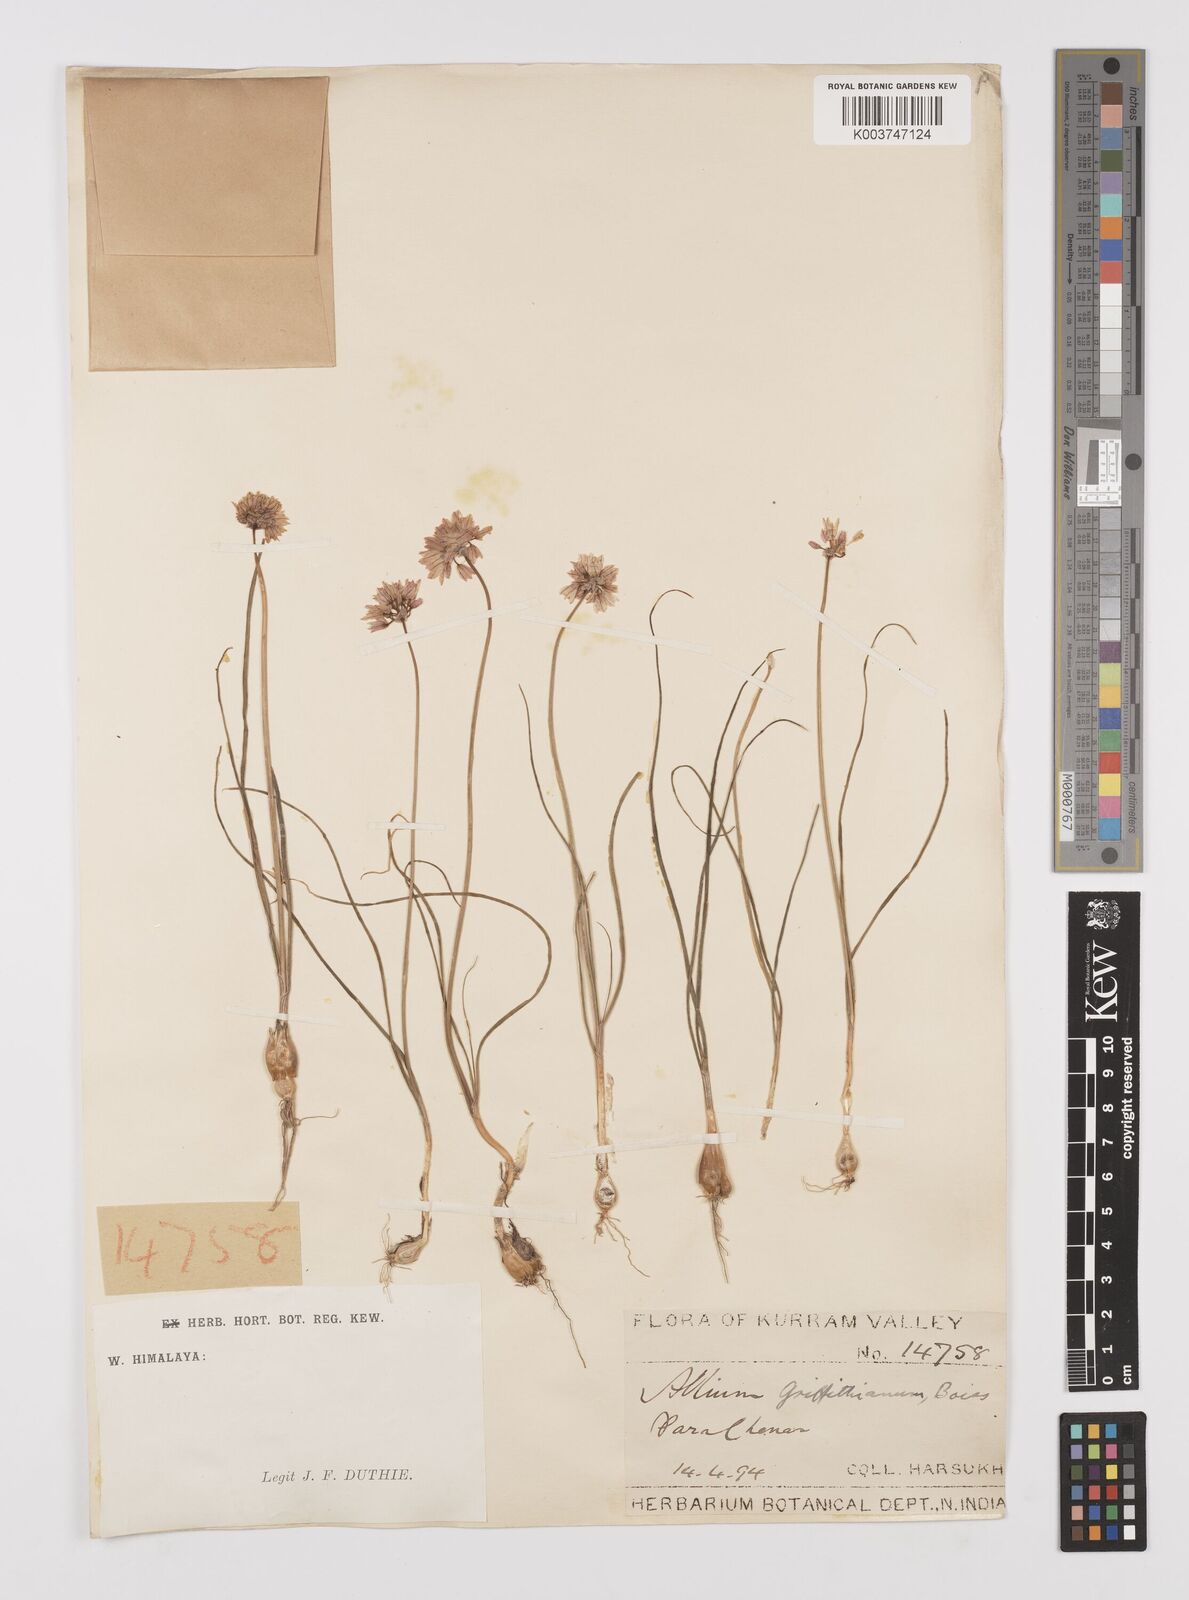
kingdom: Plantae
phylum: Tracheophyta
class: Liliopsida
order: Asparagales
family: Amaryllidaceae
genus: Allium
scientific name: Allium griffithianum
